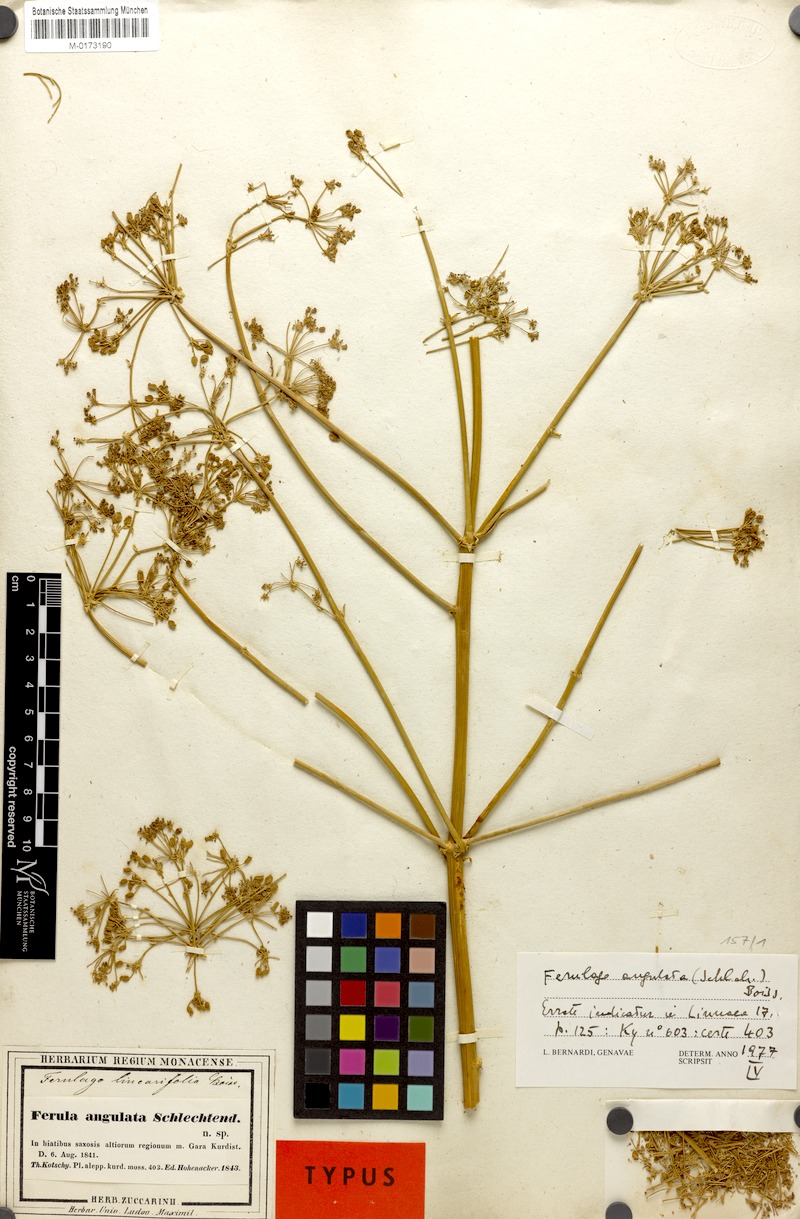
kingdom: Plantae
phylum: Tracheophyta
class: Magnoliopsida
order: Apiales
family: Apiaceae
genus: Ferulago
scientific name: Ferulago angulata
